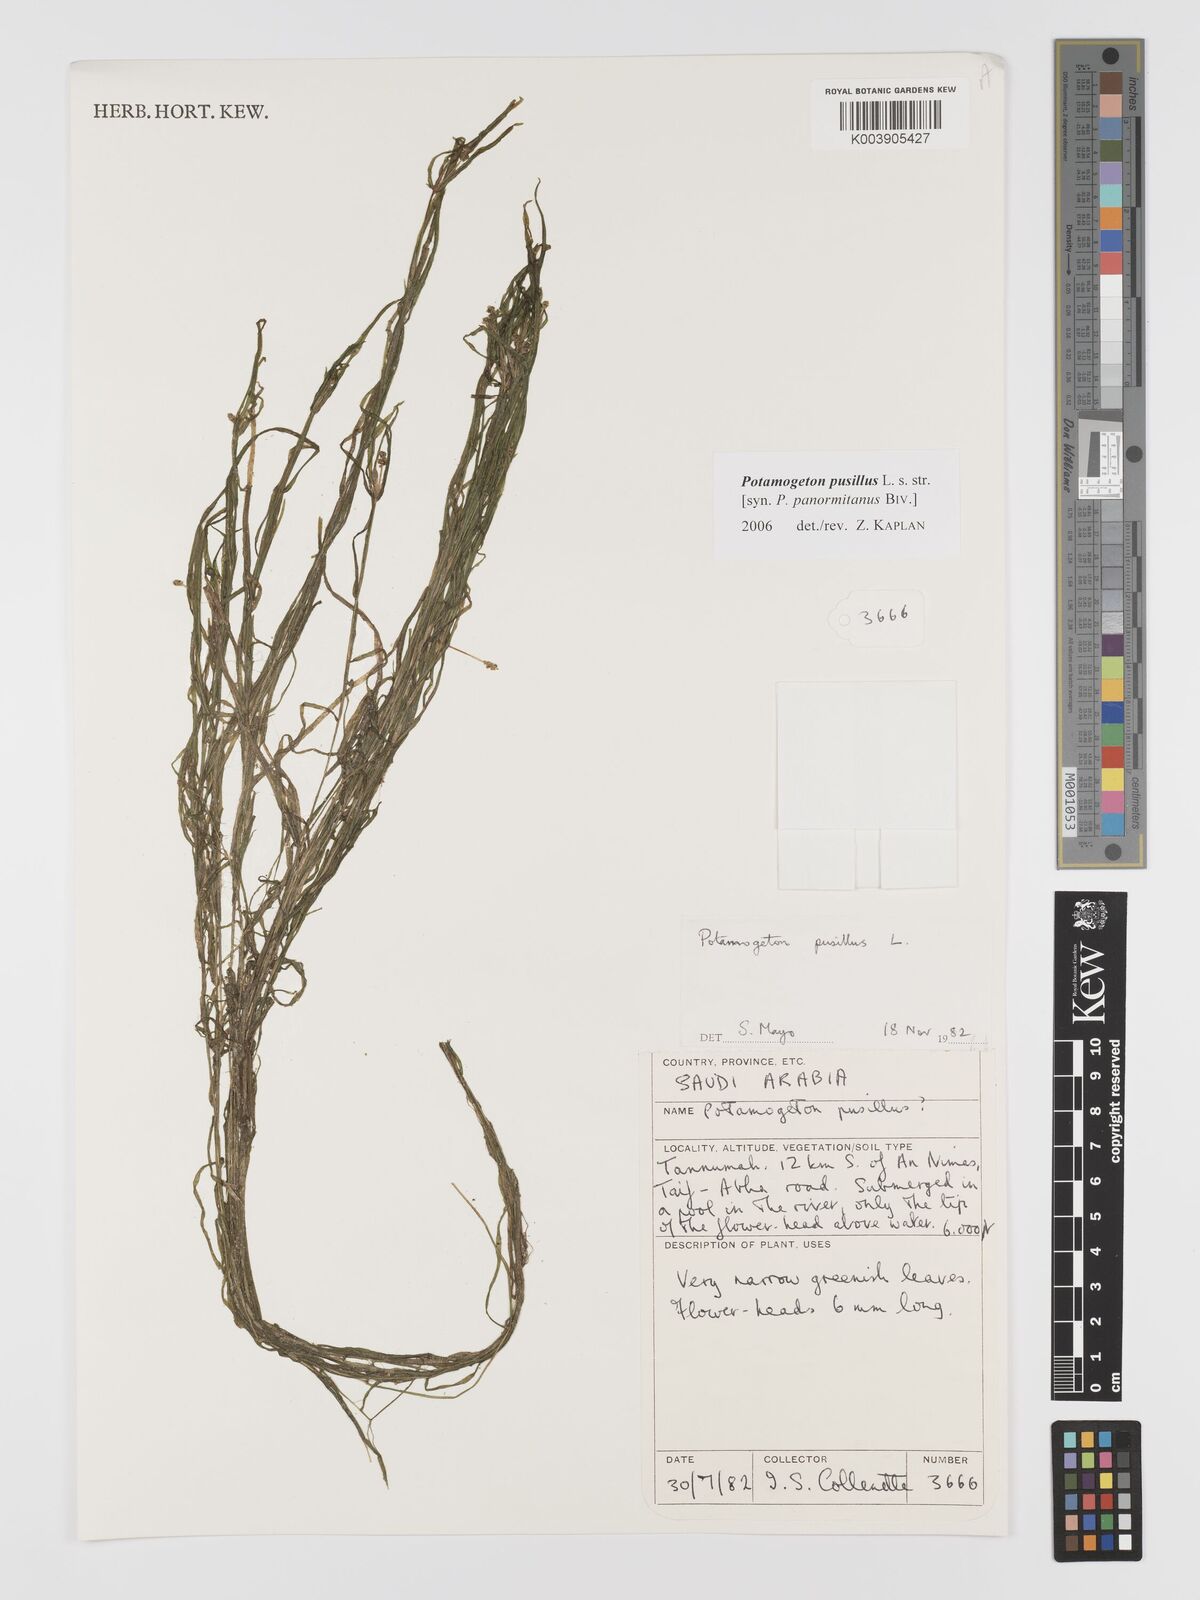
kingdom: Plantae
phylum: Tracheophyta
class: Liliopsida
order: Alismatales
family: Potamogetonaceae
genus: Potamogeton
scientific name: Potamogeton pusillus
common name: Lesser pondweed
